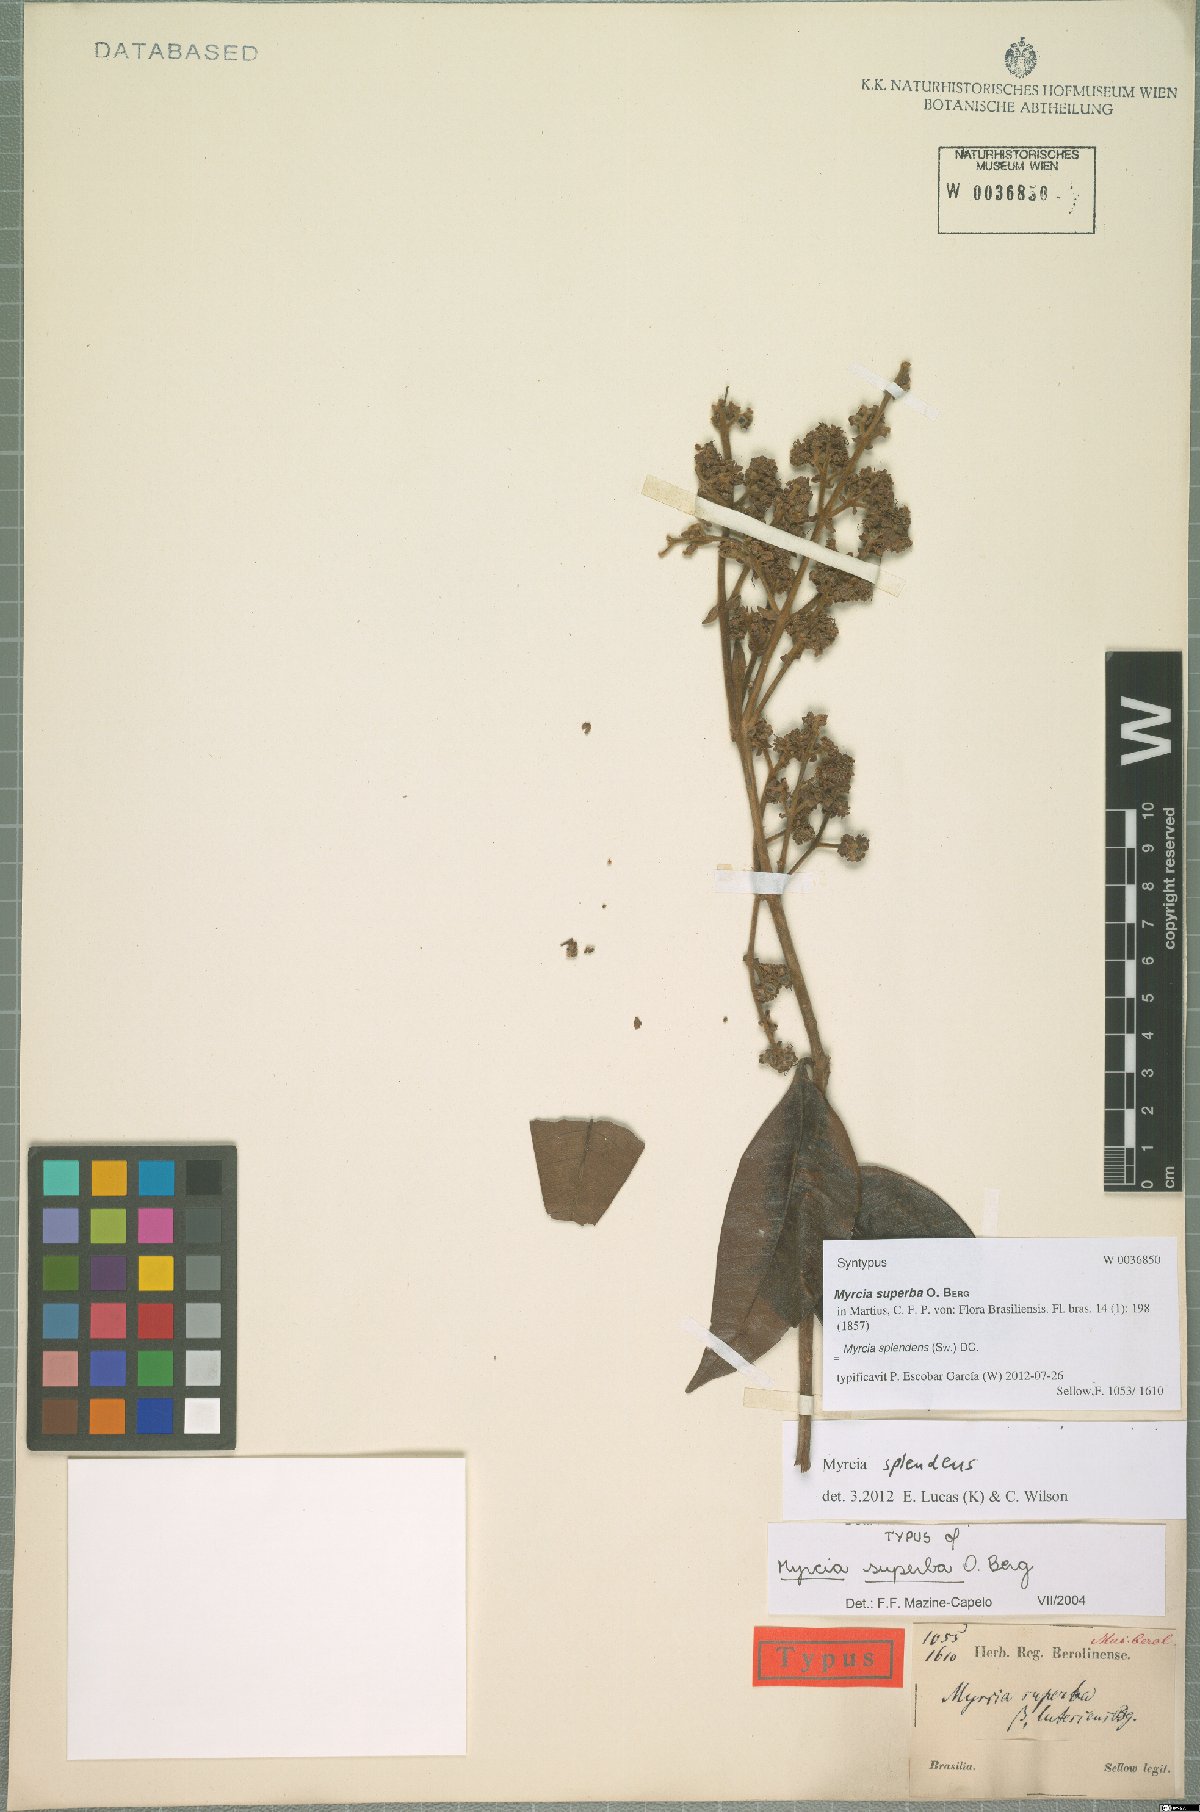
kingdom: Plantae
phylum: Tracheophyta
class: Magnoliopsida
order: Myrtales
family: Myrtaceae
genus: Myrcia
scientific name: Myrcia splendens
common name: Surinam cherry
